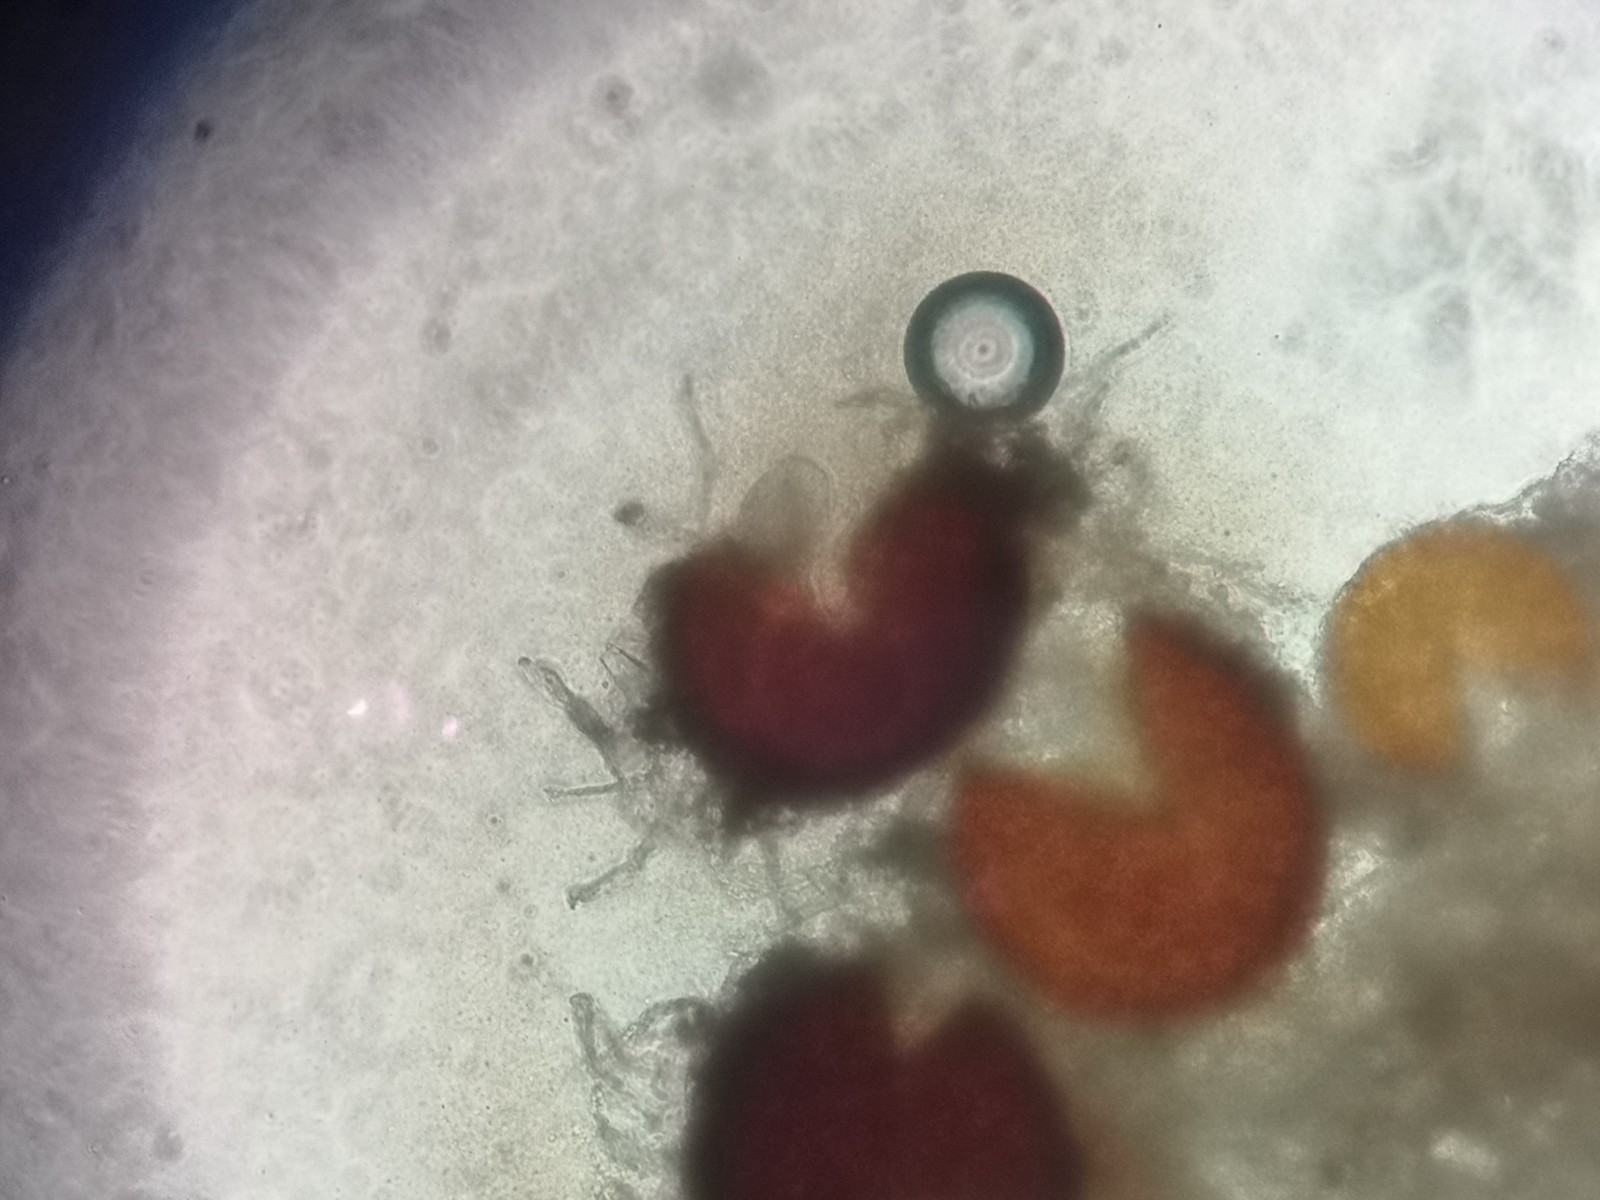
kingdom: Fungi
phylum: Ascomycota
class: Leotiomycetes
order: Helotiales
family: Erysiphaceae
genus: Golovinomyces
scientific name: Golovinomyces sordidus
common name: Plantain mildew
